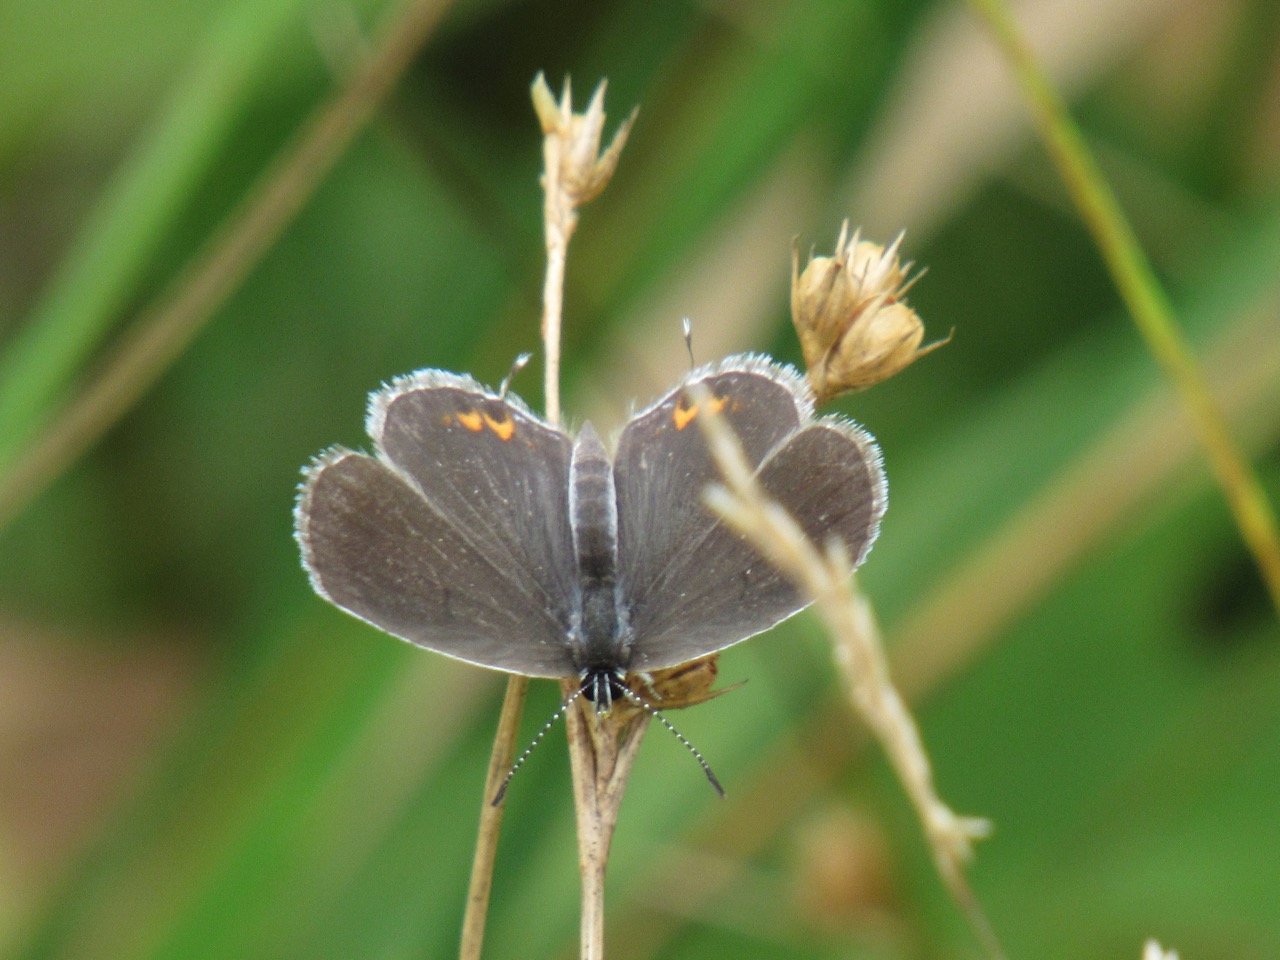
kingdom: Animalia
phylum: Arthropoda
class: Insecta
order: Lepidoptera
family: Lycaenidae
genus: Elkalyce
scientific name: Elkalyce comyntas
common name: Eastern Tailed-Blue
